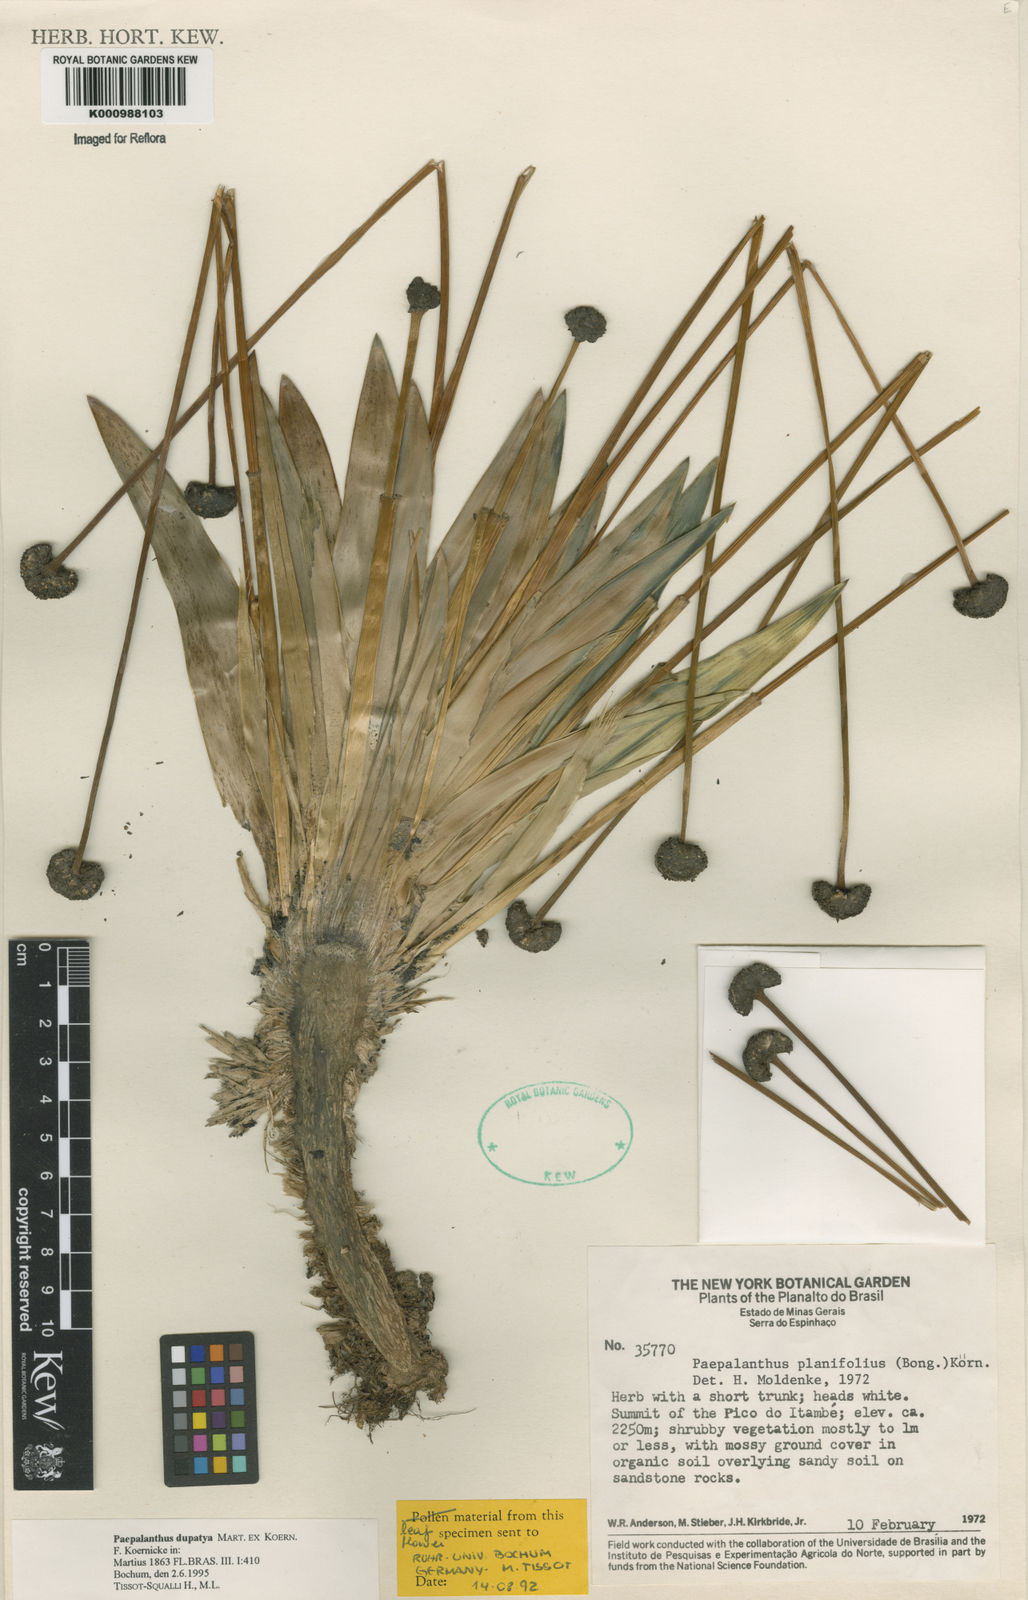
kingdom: Plantae
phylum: Tracheophyta
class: Liliopsida
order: Poales
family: Eriocaulaceae
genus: Paepalanthus
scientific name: Paepalanthus
